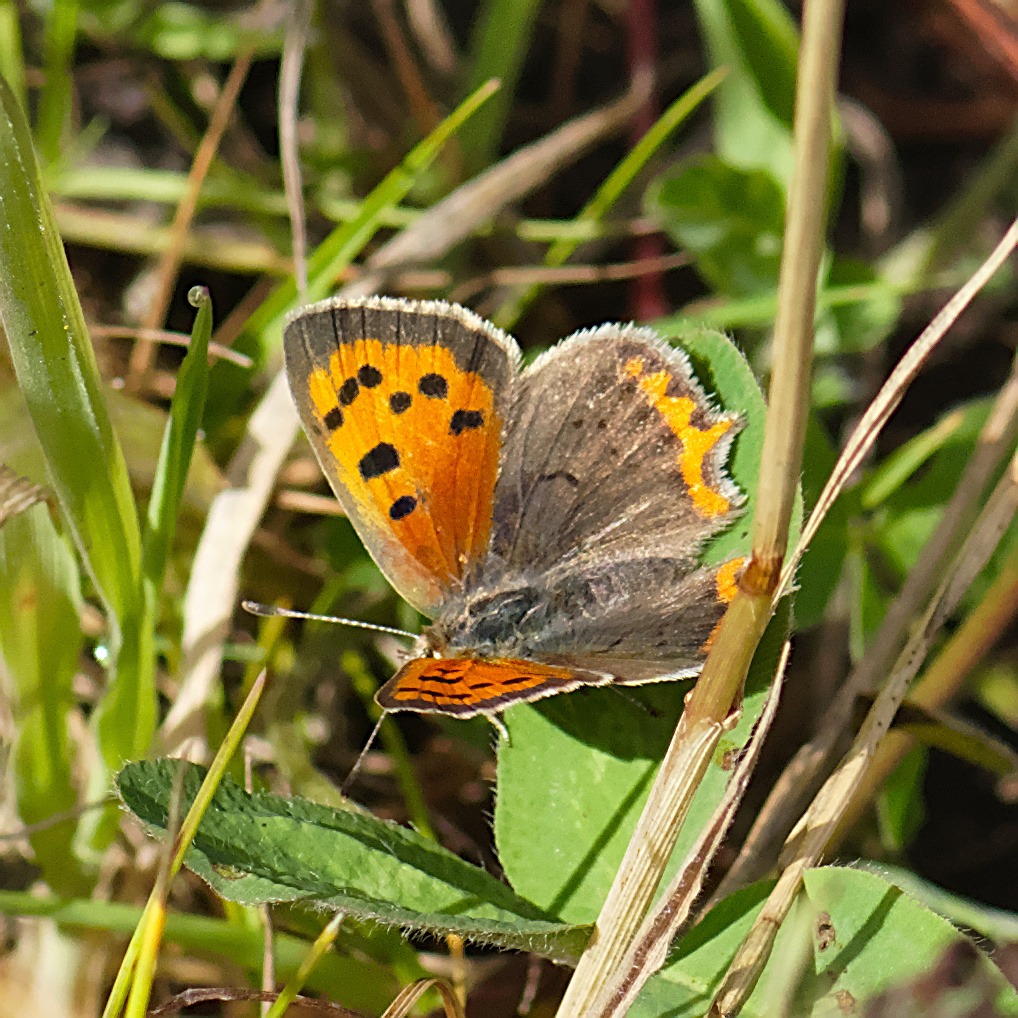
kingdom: Animalia
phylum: Arthropoda
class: Insecta
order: Lepidoptera
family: Lycaenidae
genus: Lycaena
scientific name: Lycaena phlaeas
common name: Lille ildfugl
